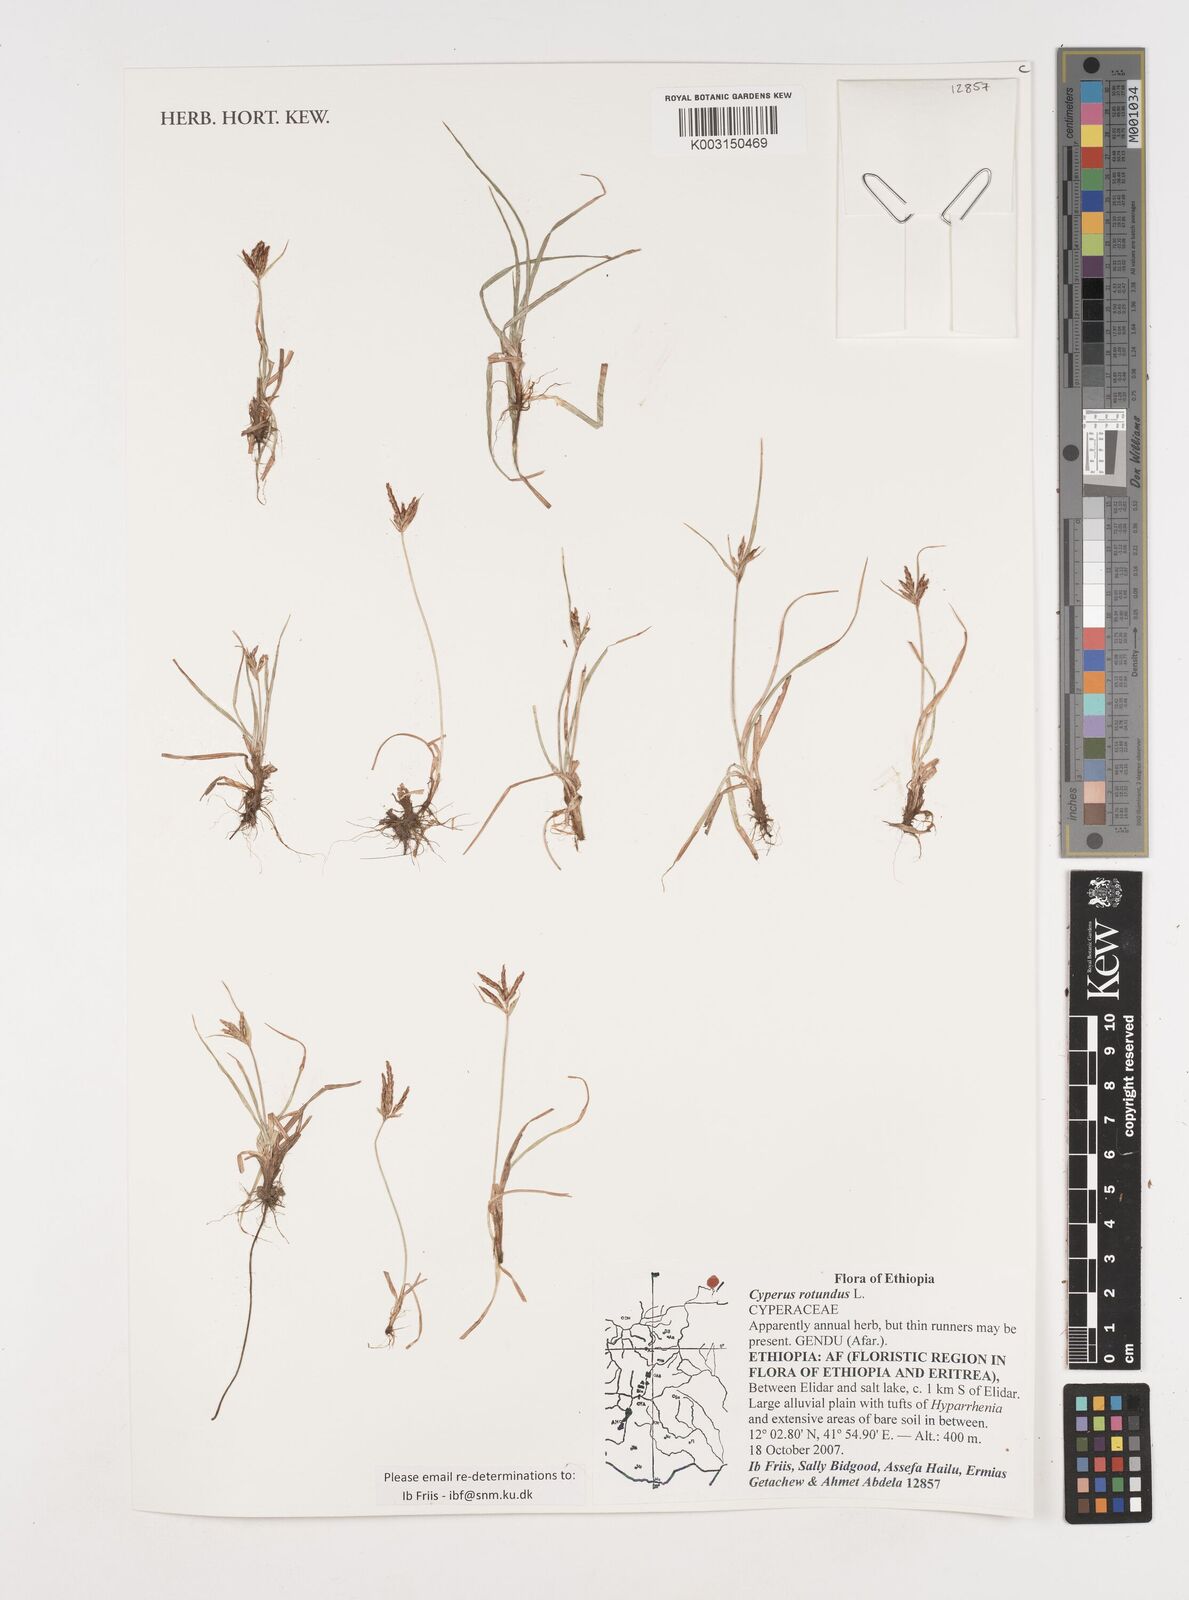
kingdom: Plantae
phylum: Tracheophyta
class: Liliopsida
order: Poales
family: Cyperaceae
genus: Cyperus
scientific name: Cyperus rotundus
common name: Nutgrass
